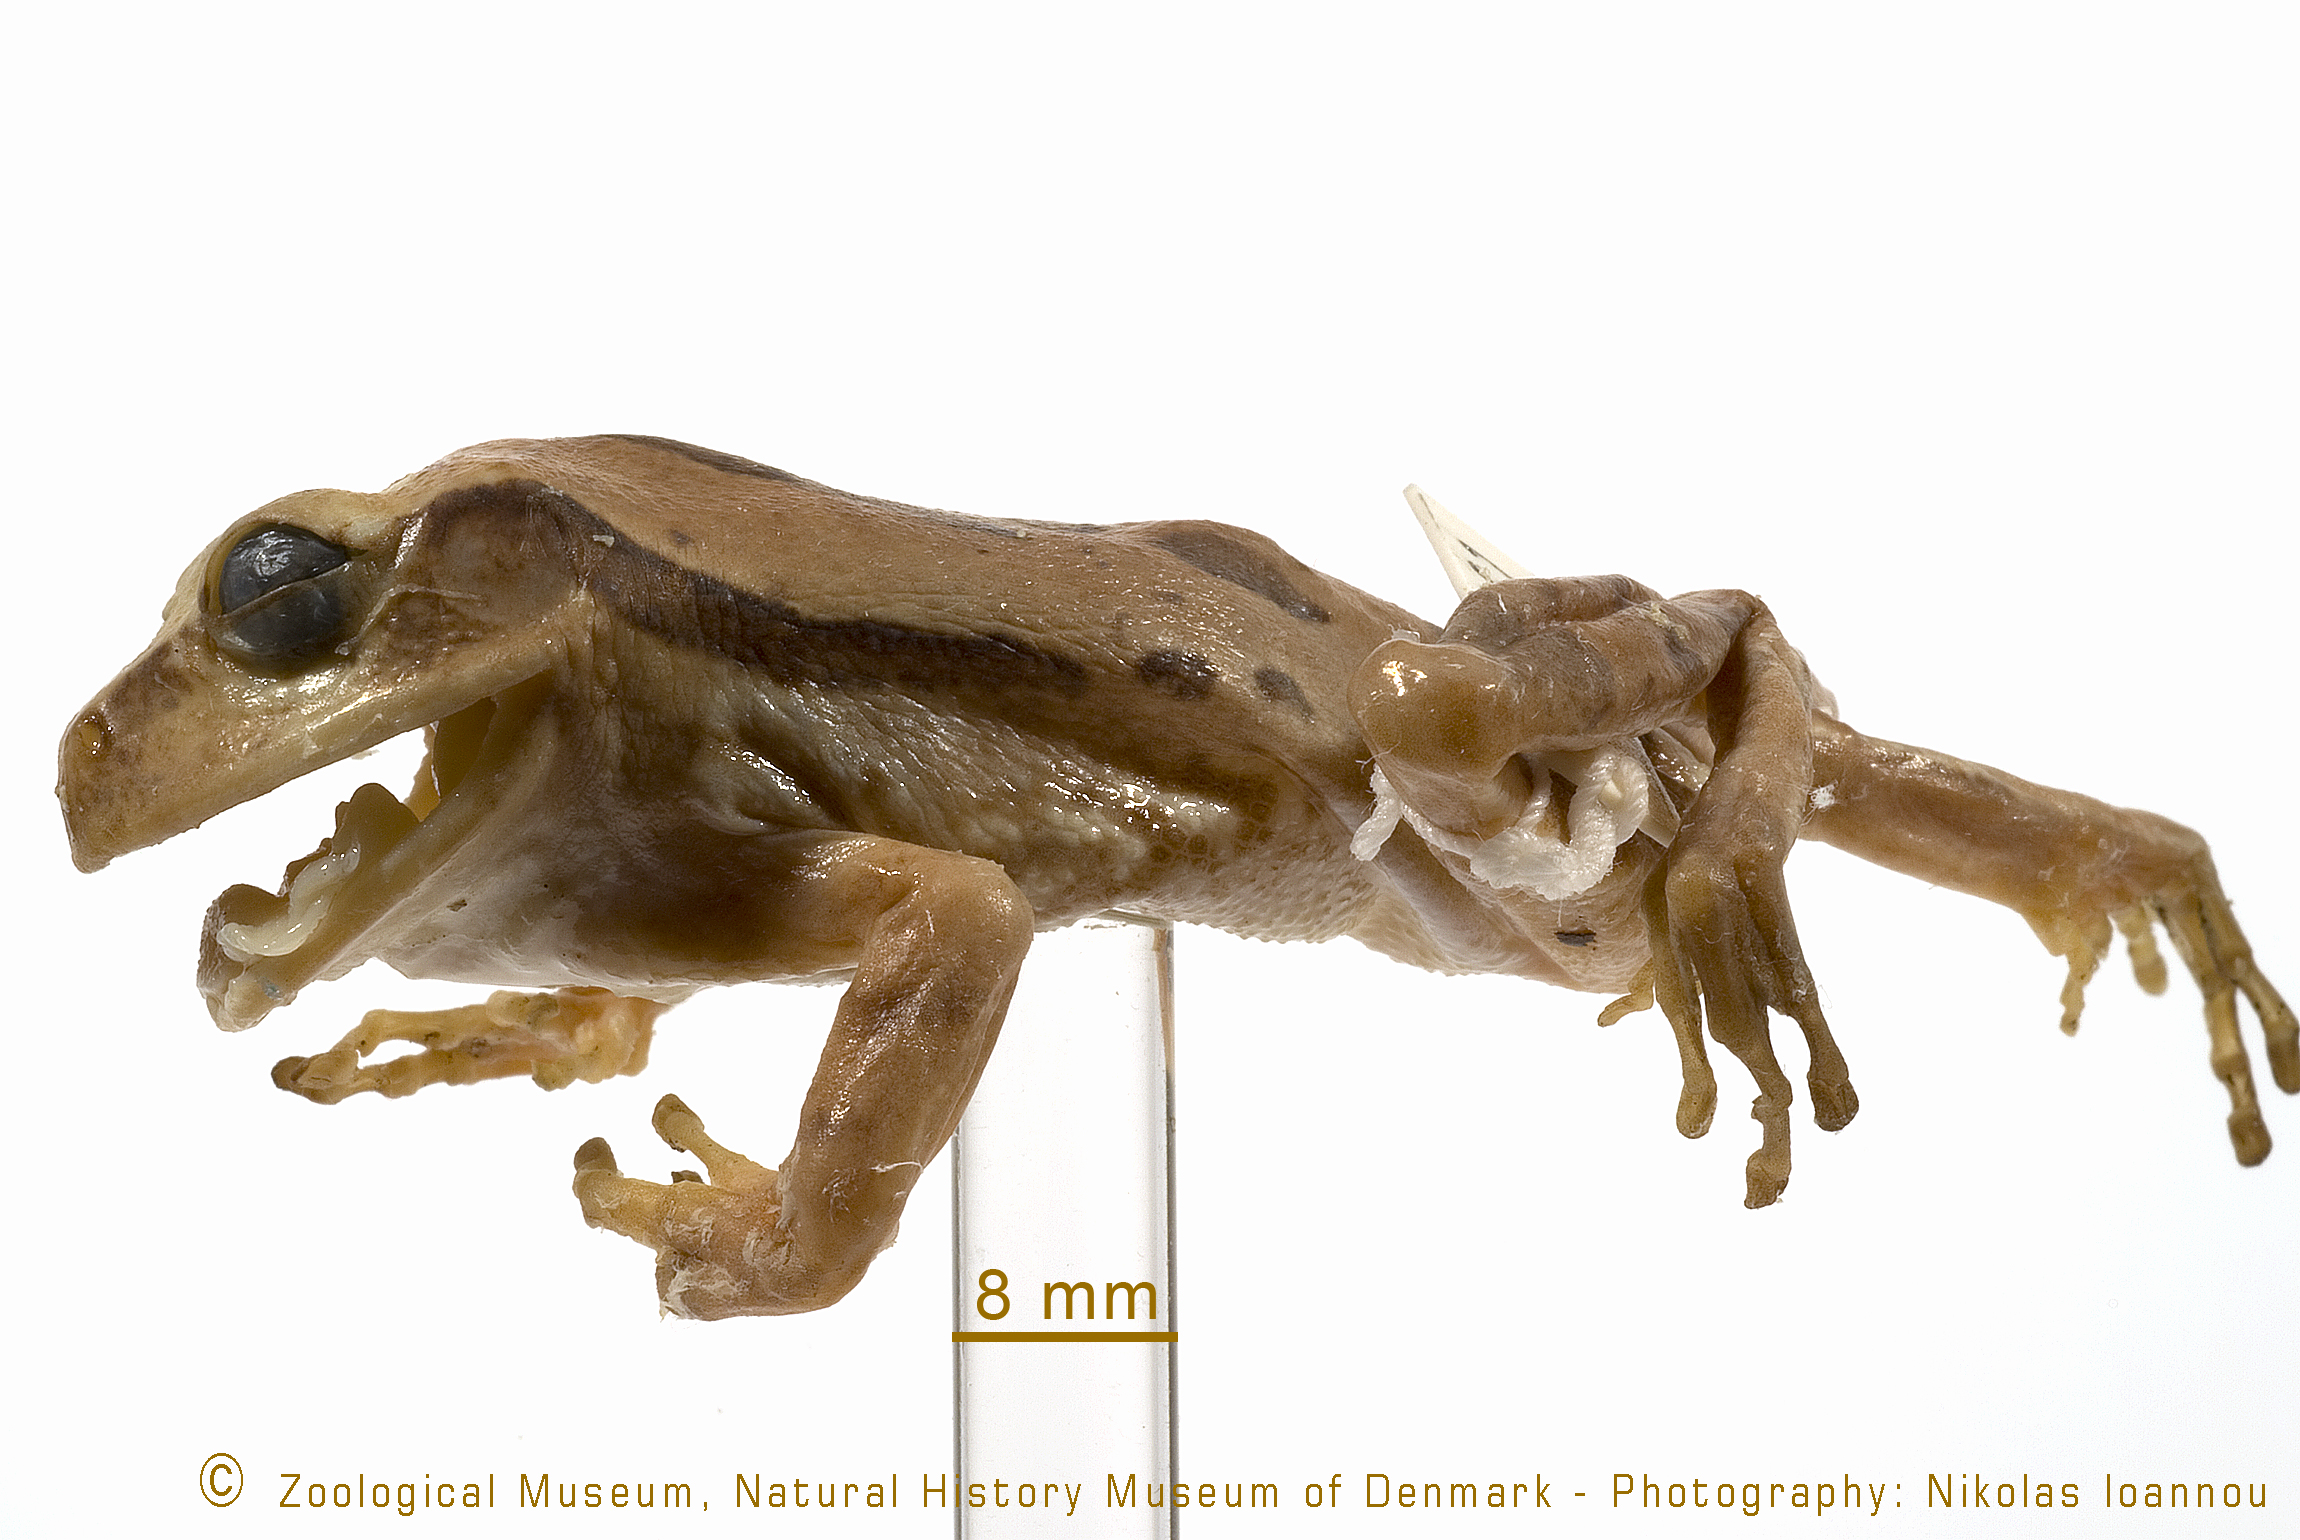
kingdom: Animalia
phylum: Chordata
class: Amphibia
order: Anura
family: Arthroleptidae
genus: Leptopelis
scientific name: Leptopelis flavomaculatus
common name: Johnston's treefrog
